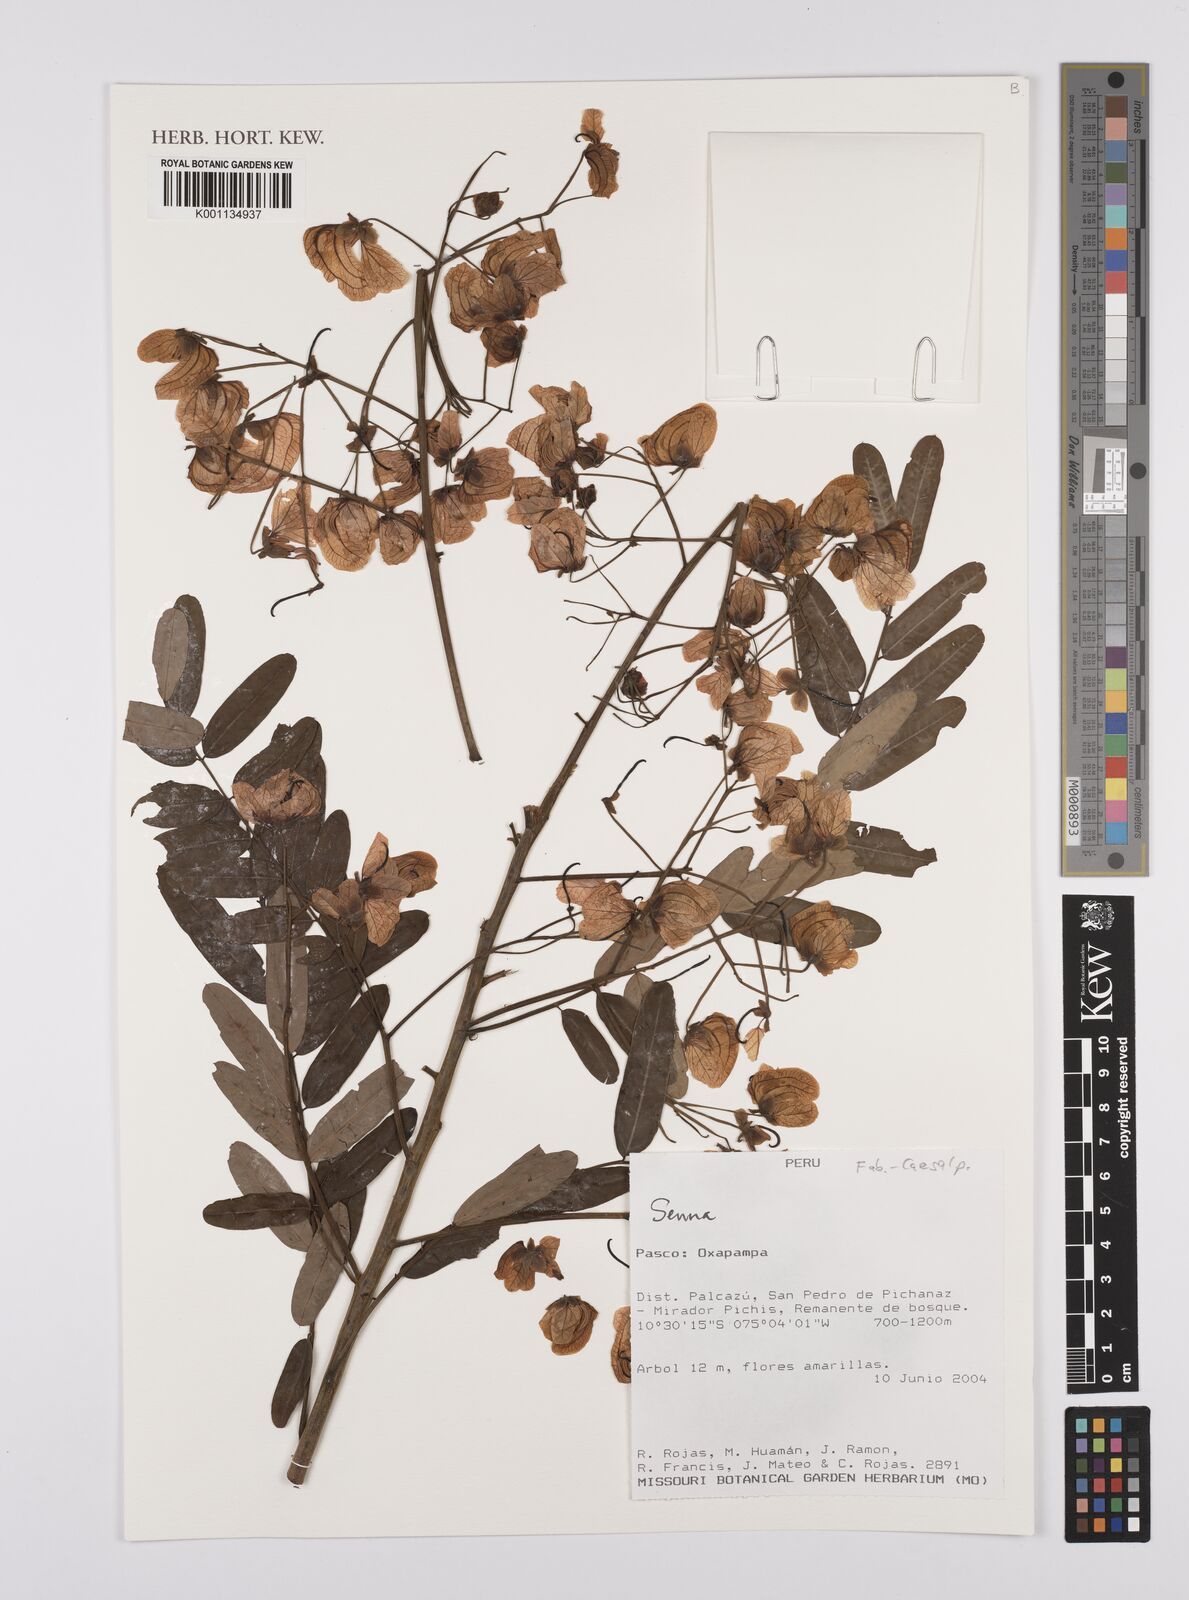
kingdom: Plantae
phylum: Tracheophyta
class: Magnoliopsida
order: Fabales
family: Fabaceae
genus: Senna
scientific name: Senna
